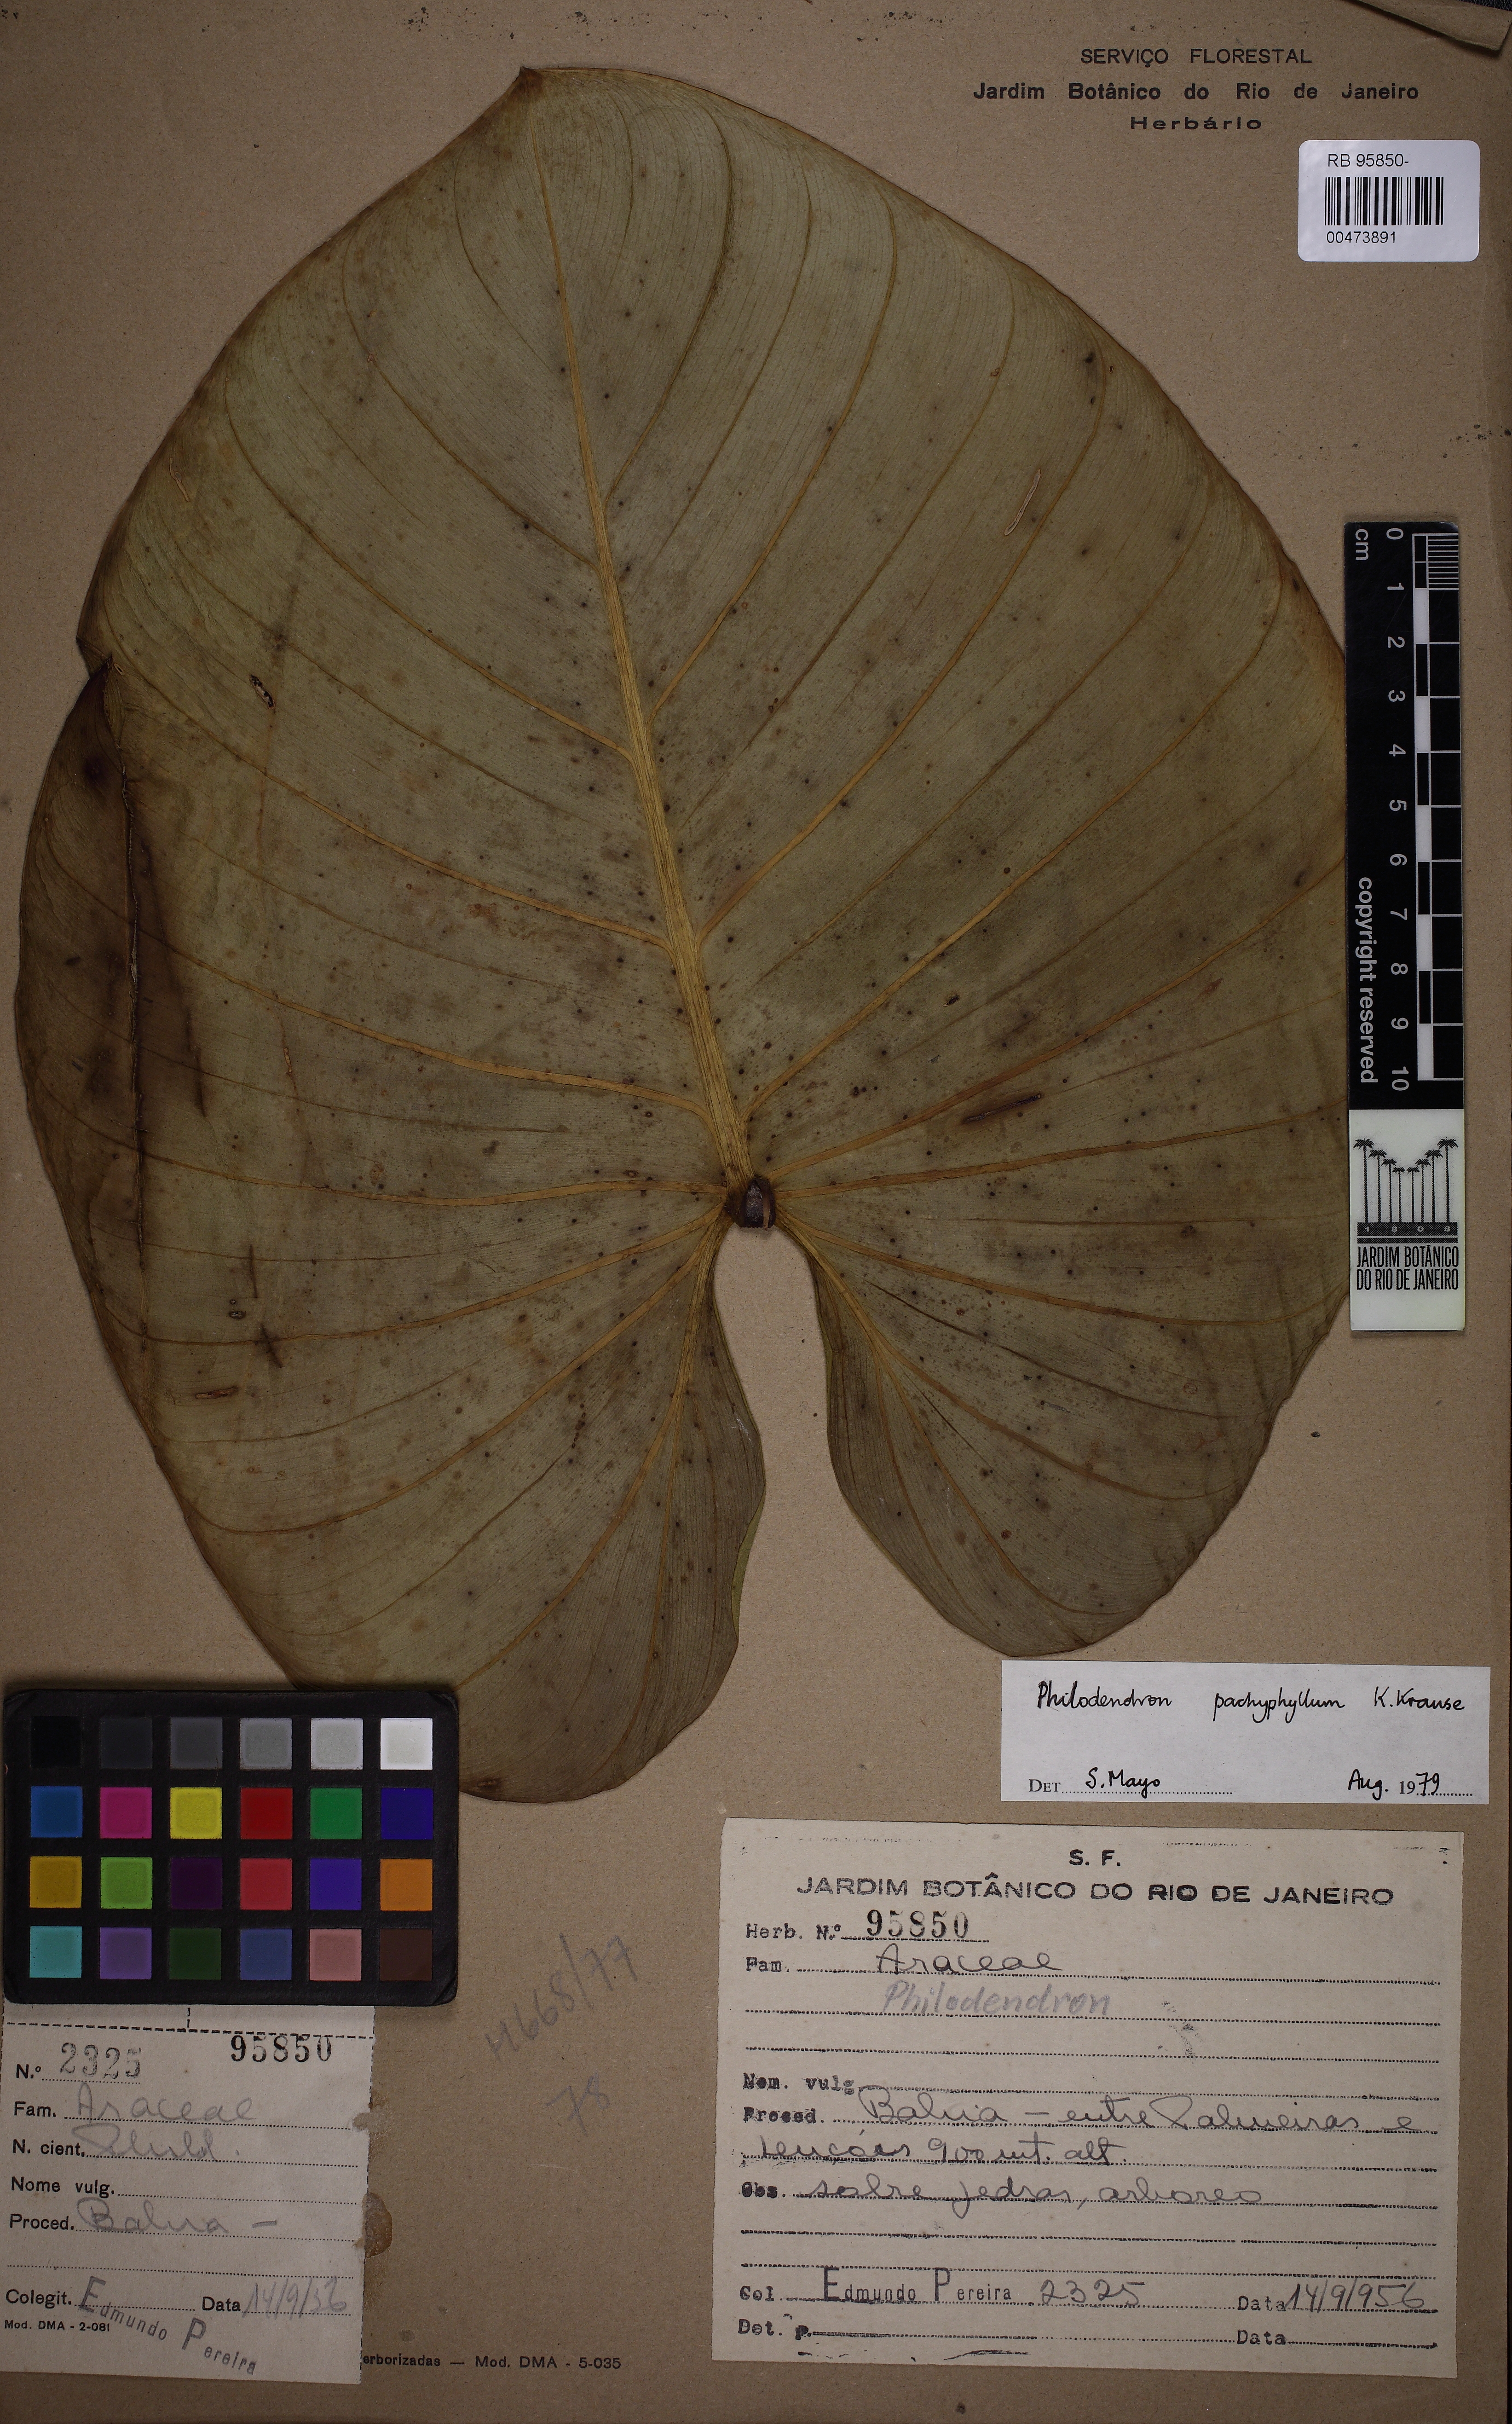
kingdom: Plantae
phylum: Tracheophyta
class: Liliopsida
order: Alismatales
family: Araceae
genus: Philodendron
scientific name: Philodendron pachyphyllum
